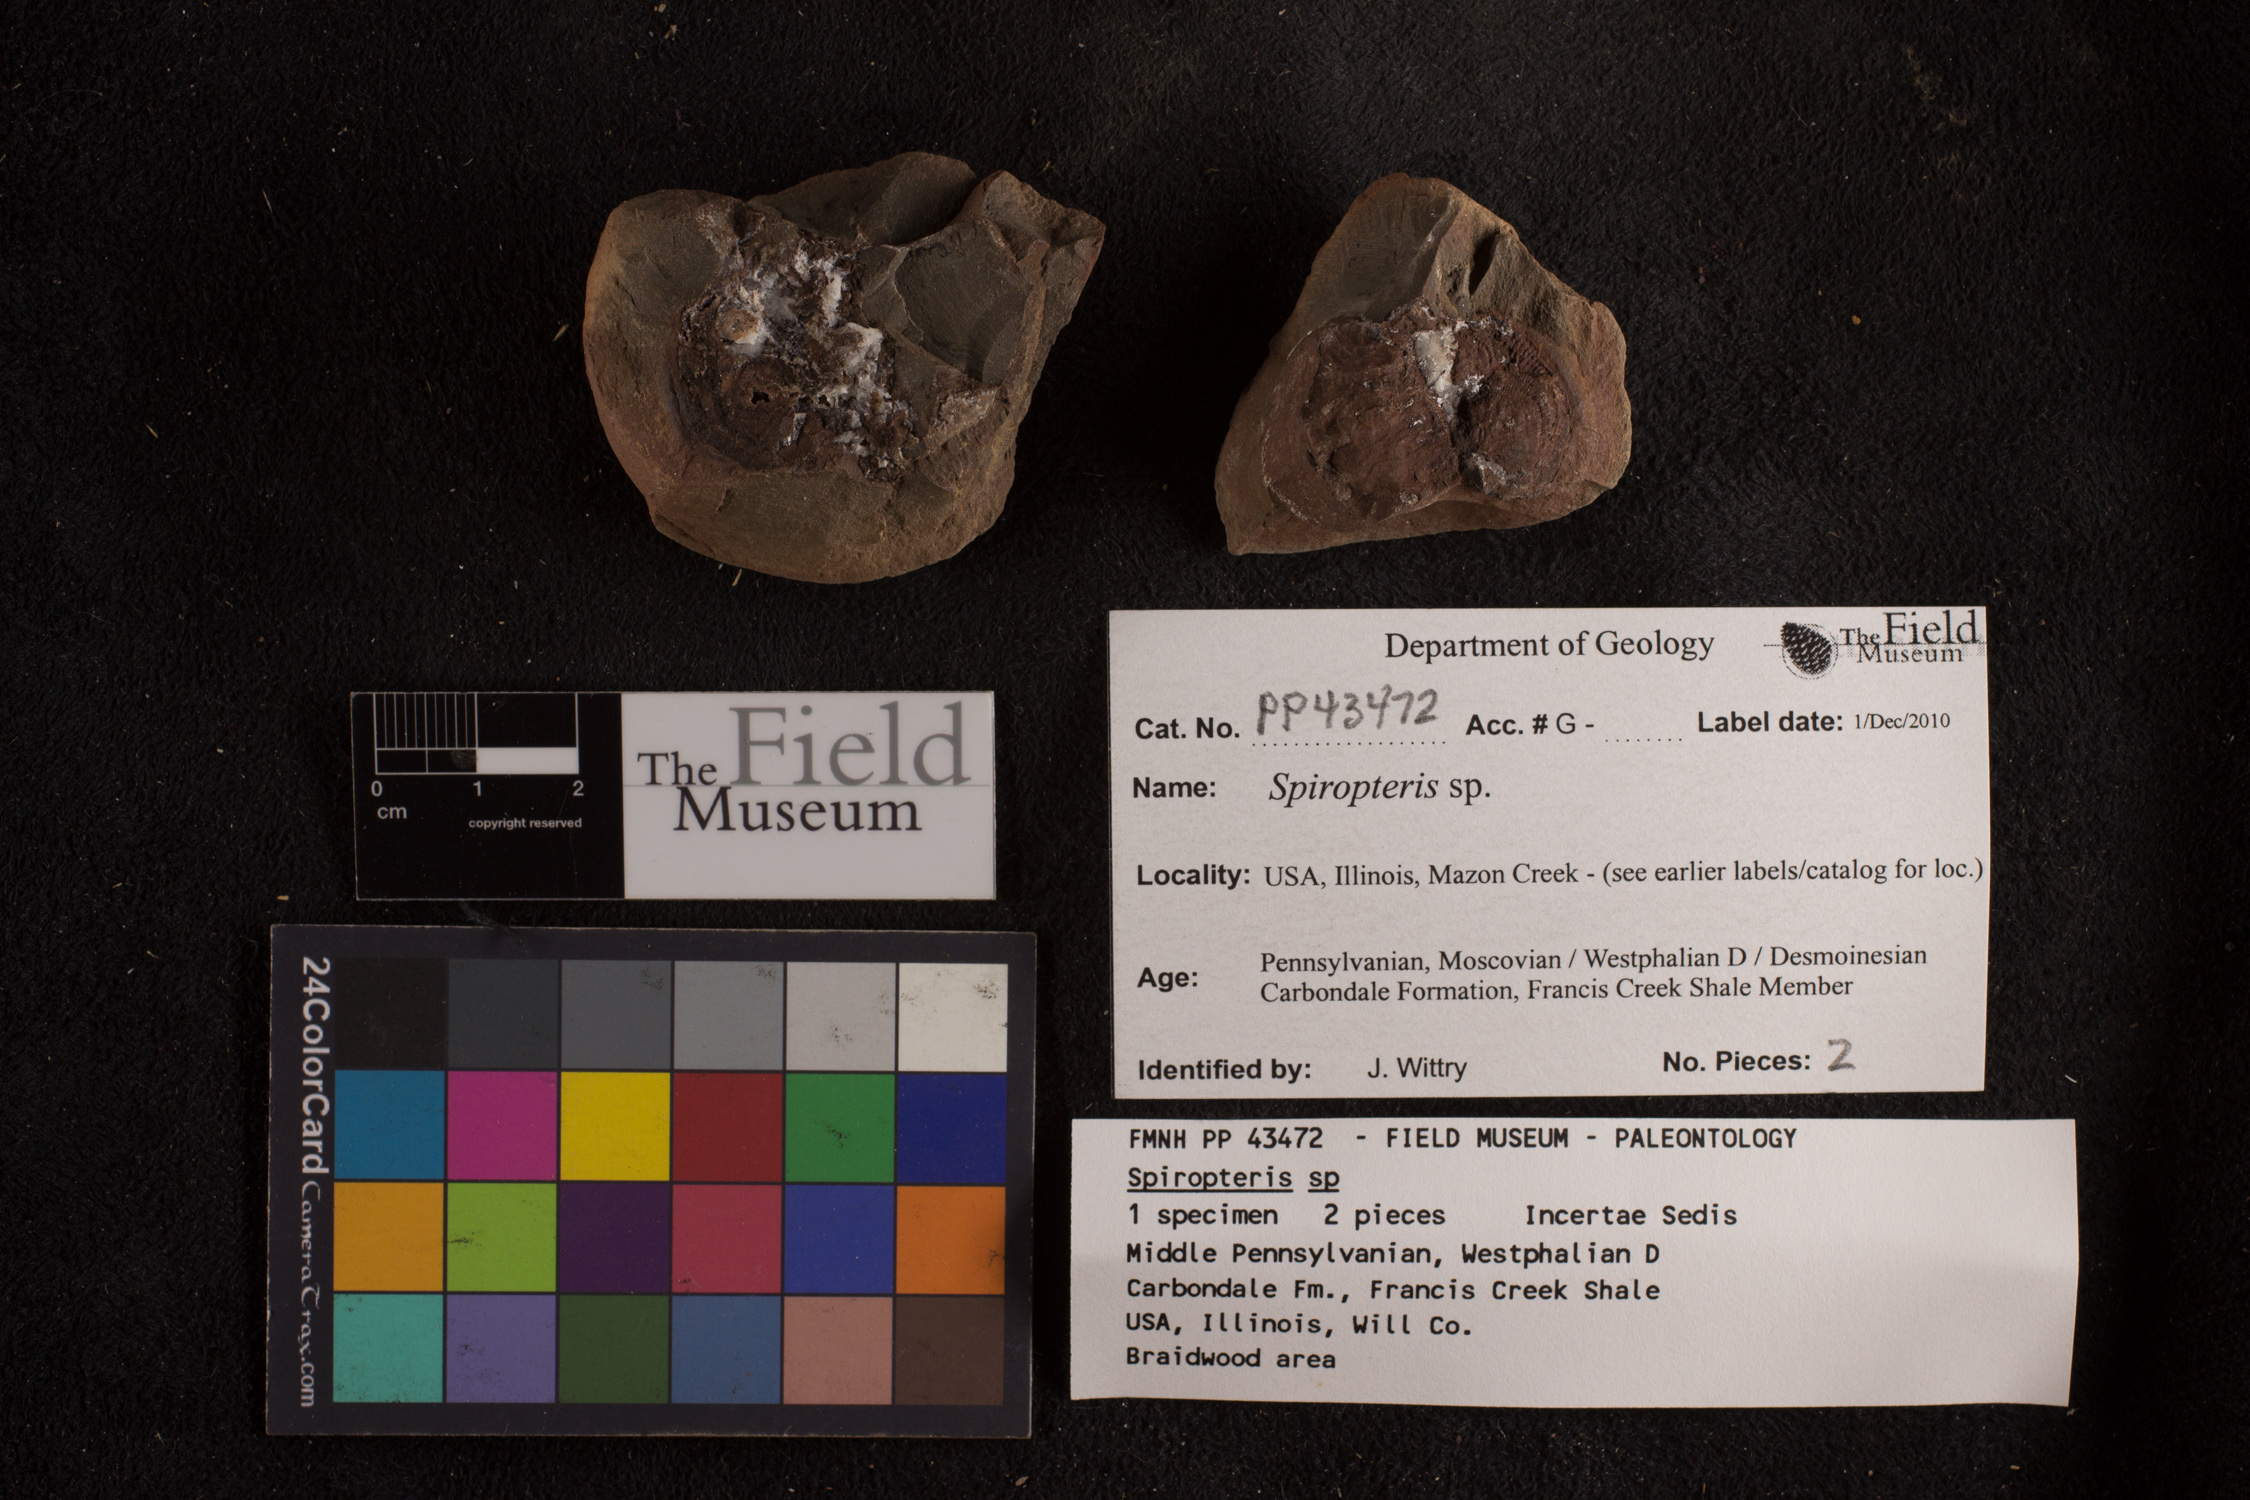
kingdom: Plantae
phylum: Tracheophyta
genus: Spiropteris
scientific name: Spiropteris
